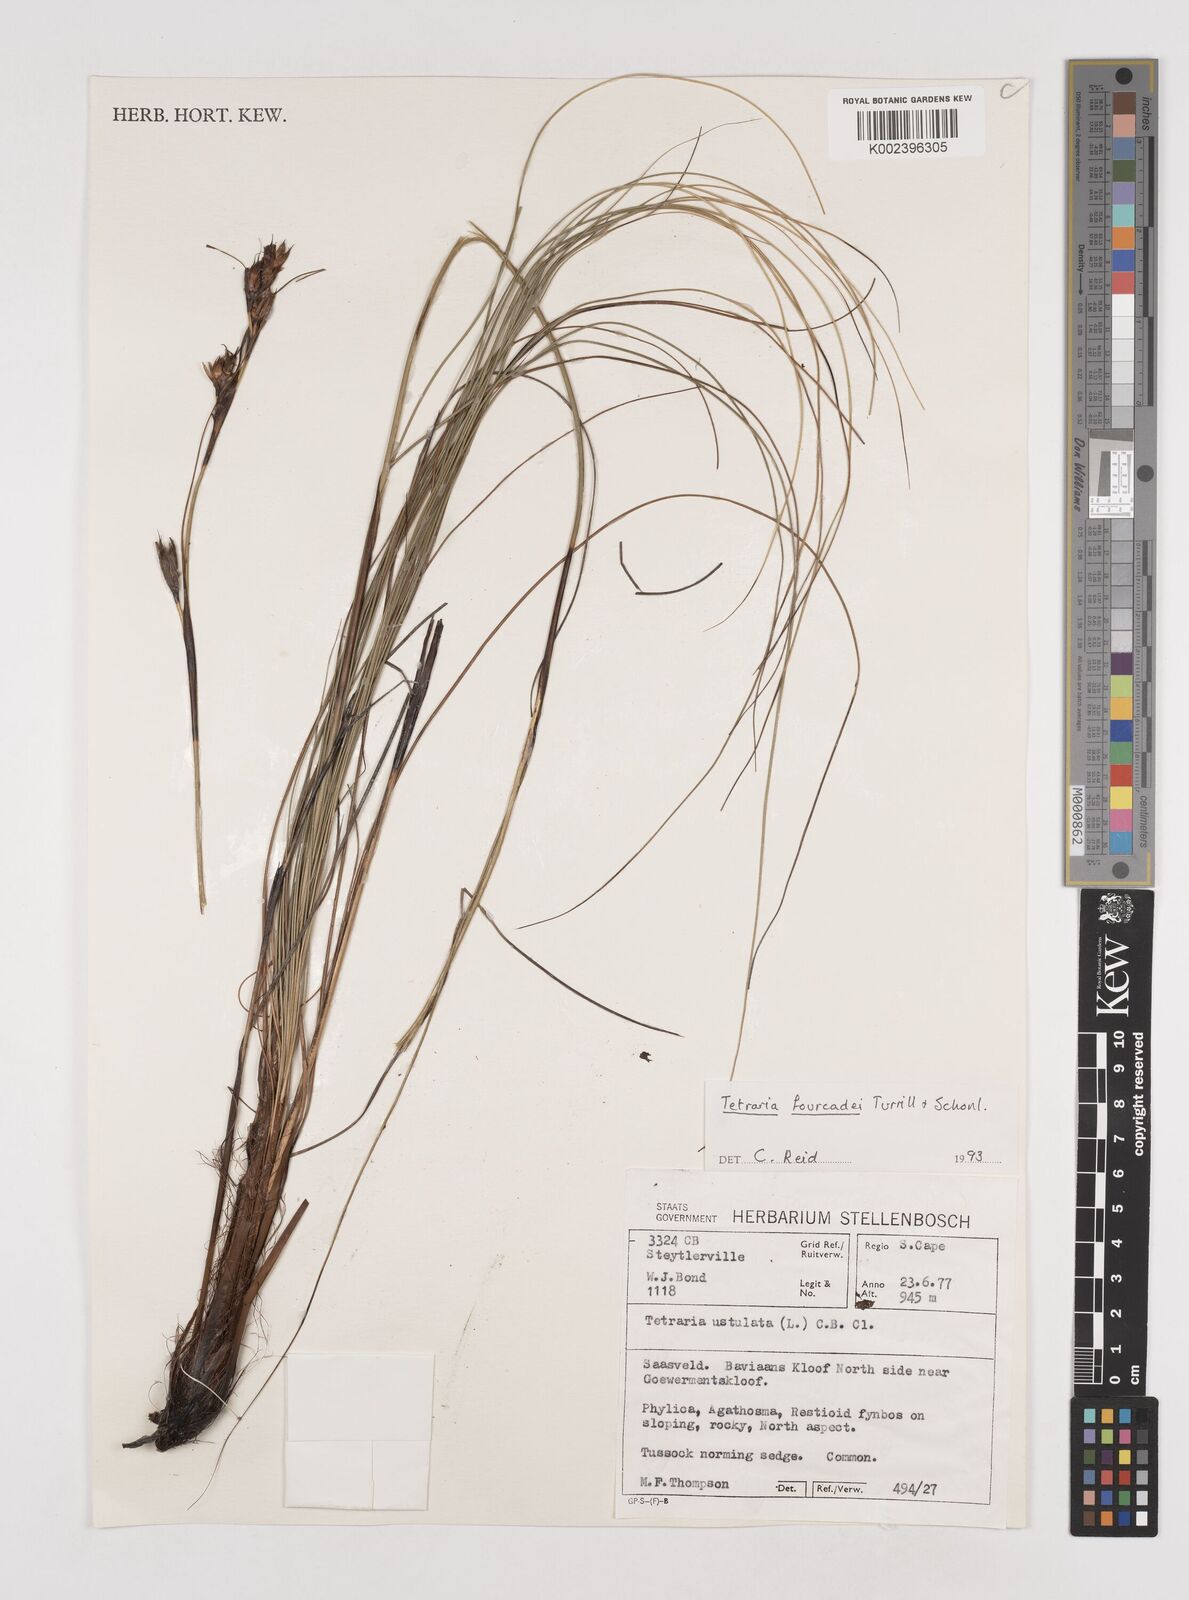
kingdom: Plantae
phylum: Tracheophyta
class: Liliopsida
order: Poales
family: Cyperaceae
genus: Tetraria
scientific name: Tetraria fourcadei
